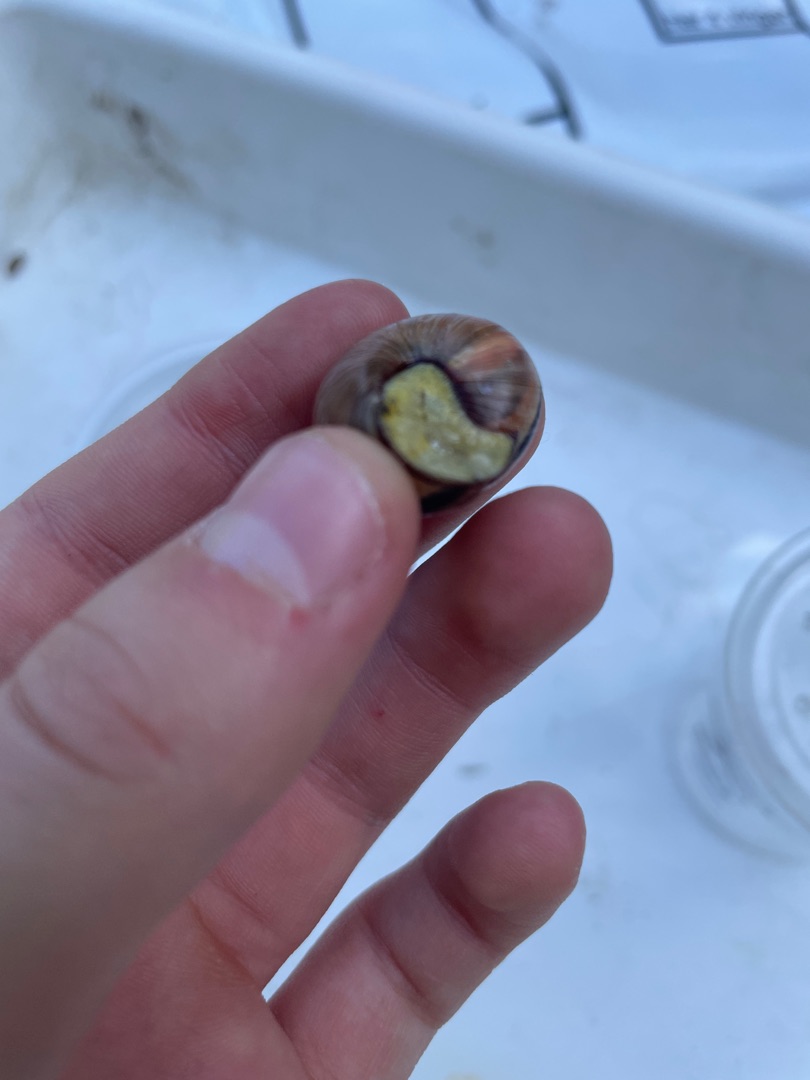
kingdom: Animalia
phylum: Mollusca
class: Gastropoda
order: Stylommatophora
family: Helicidae
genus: Cepaea
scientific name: Cepaea nemoralis
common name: Lundsnegl
